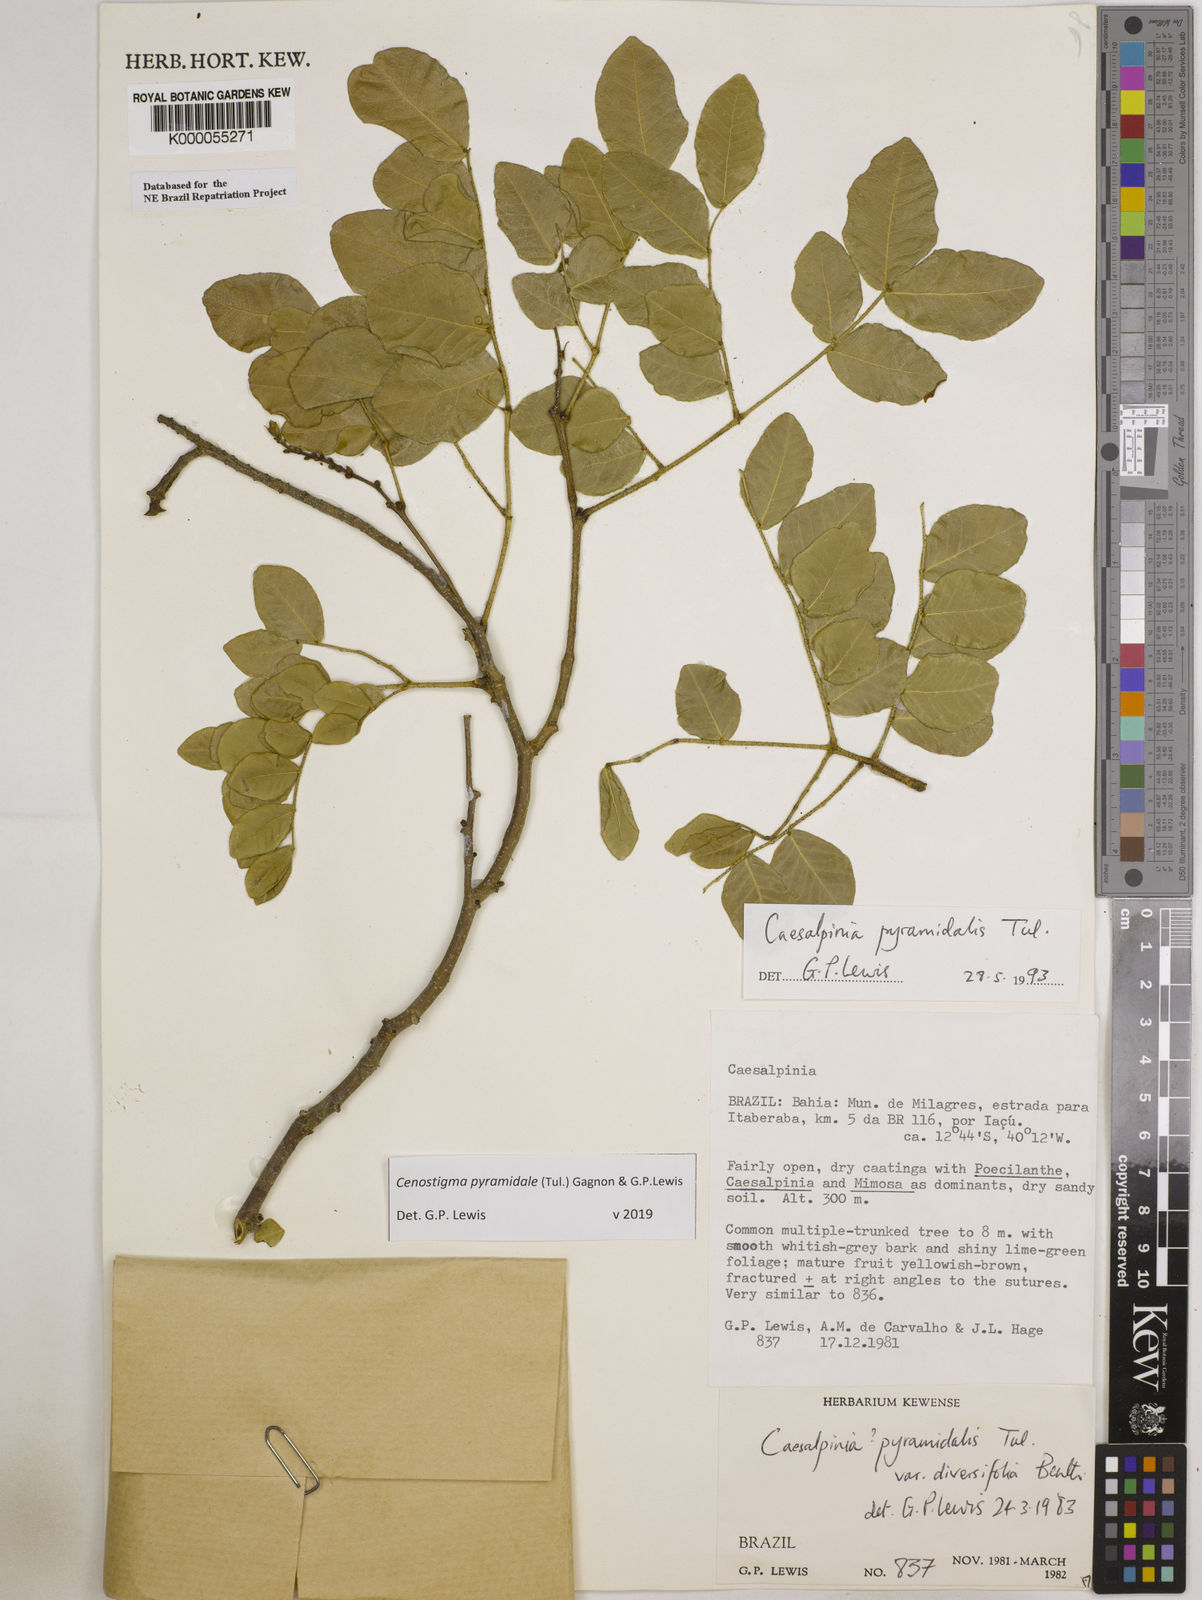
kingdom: Plantae
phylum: Tracheophyta
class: Magnoliopsida
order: Fabales
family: Fabaceae
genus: Cenostigma
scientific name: Cenostigma pyramidale
